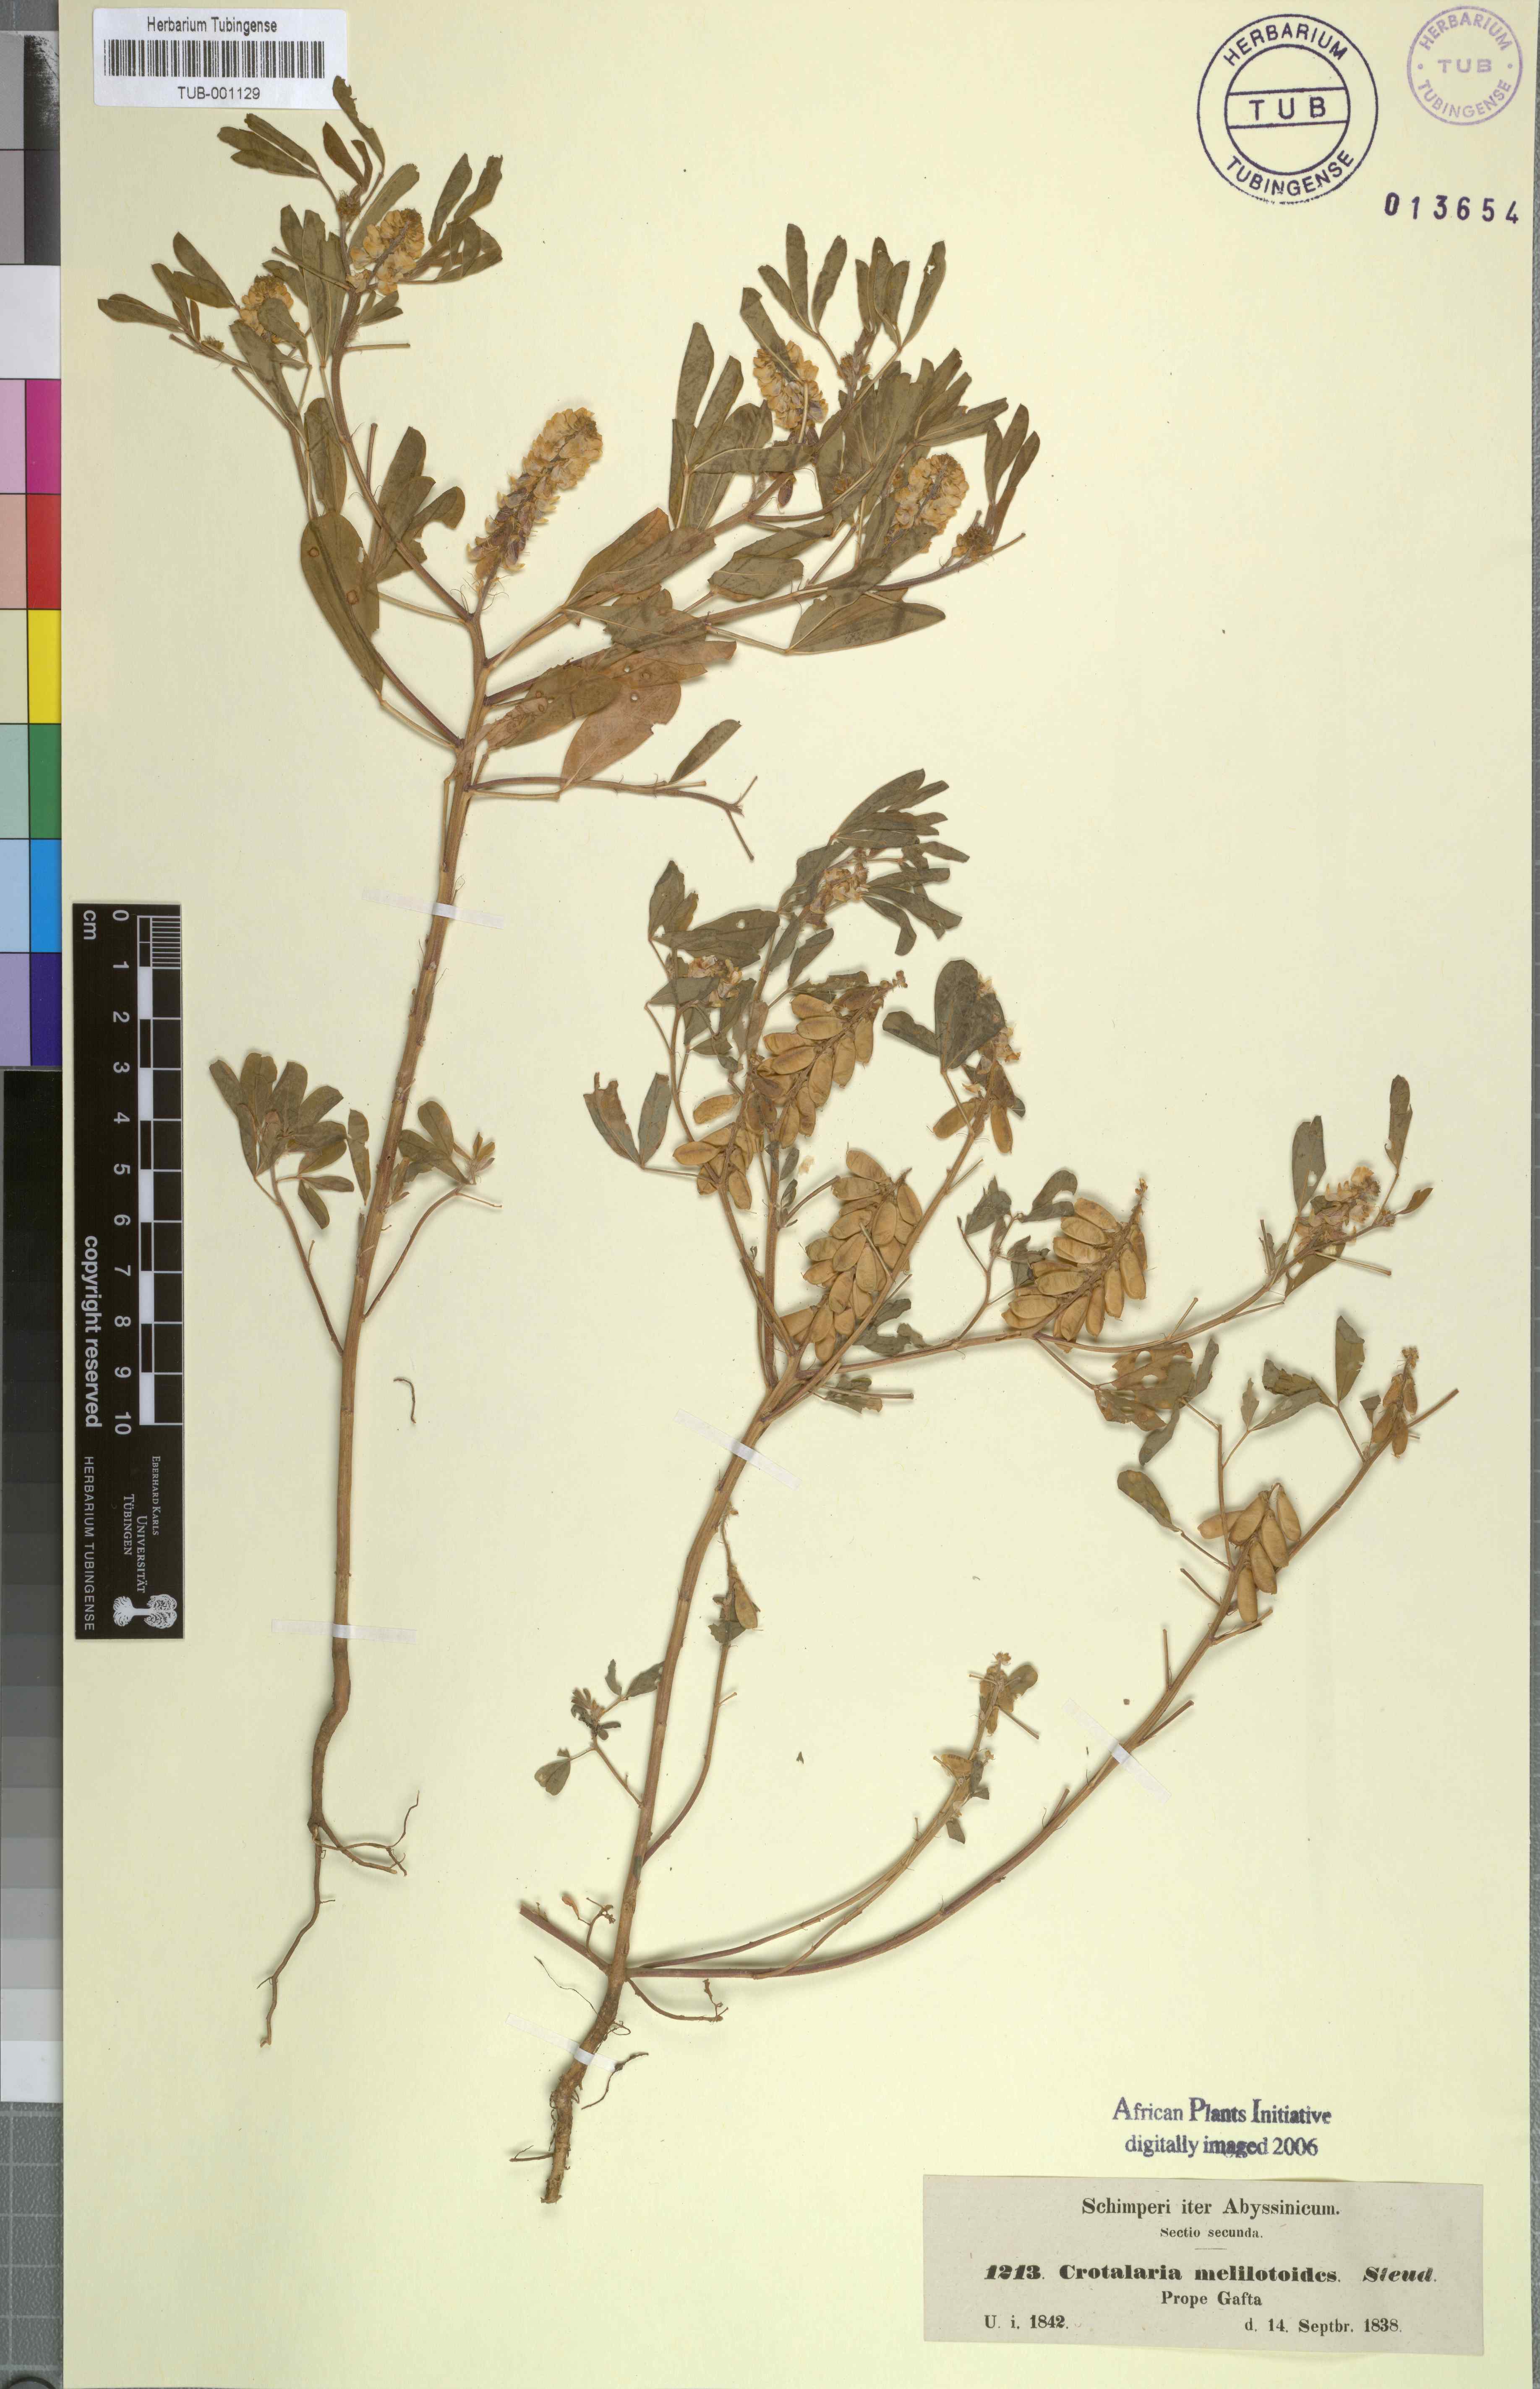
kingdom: Plantae
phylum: Tracheophyta
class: Magnoliopsida
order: Fabales
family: Fabaceae
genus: Crotalaria
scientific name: Crotalaria pycnostachya
